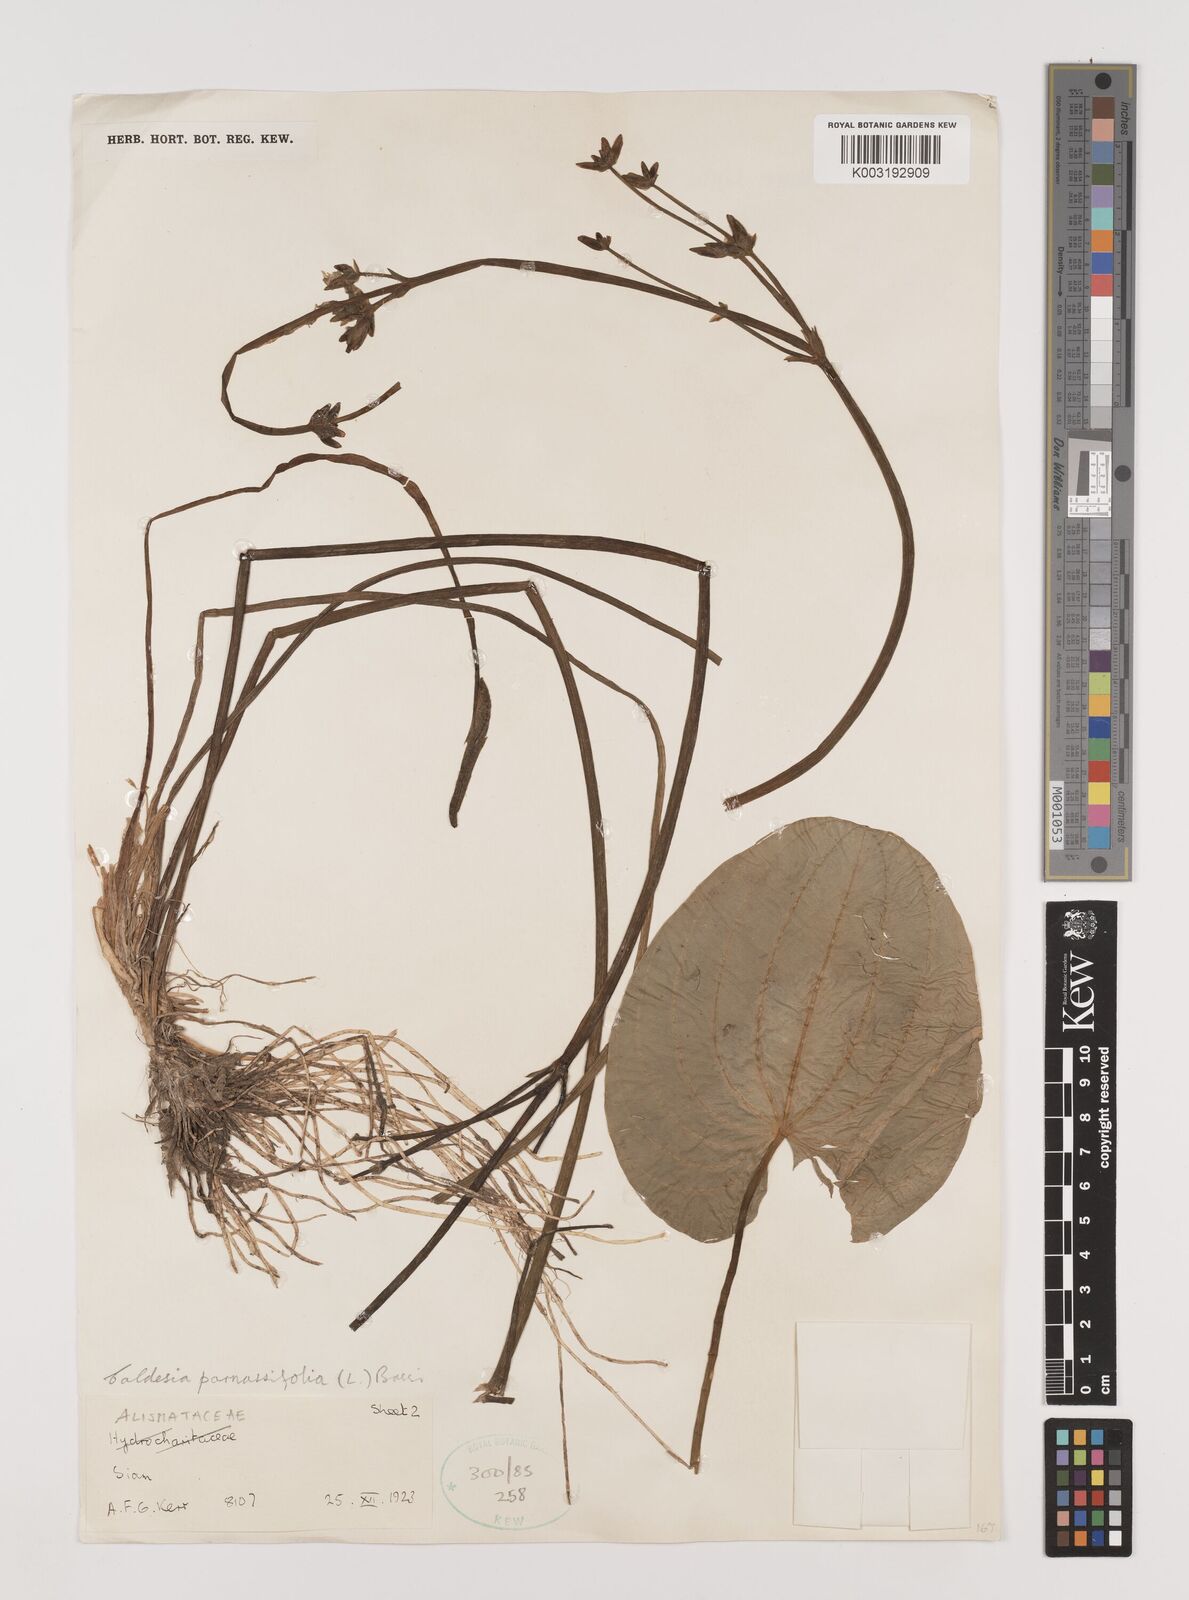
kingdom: Plantae
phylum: Tracheophyta
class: Liliopsida
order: Alismatales
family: Alismataceae
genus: Caldesia
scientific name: Caldesia parnassifolia
